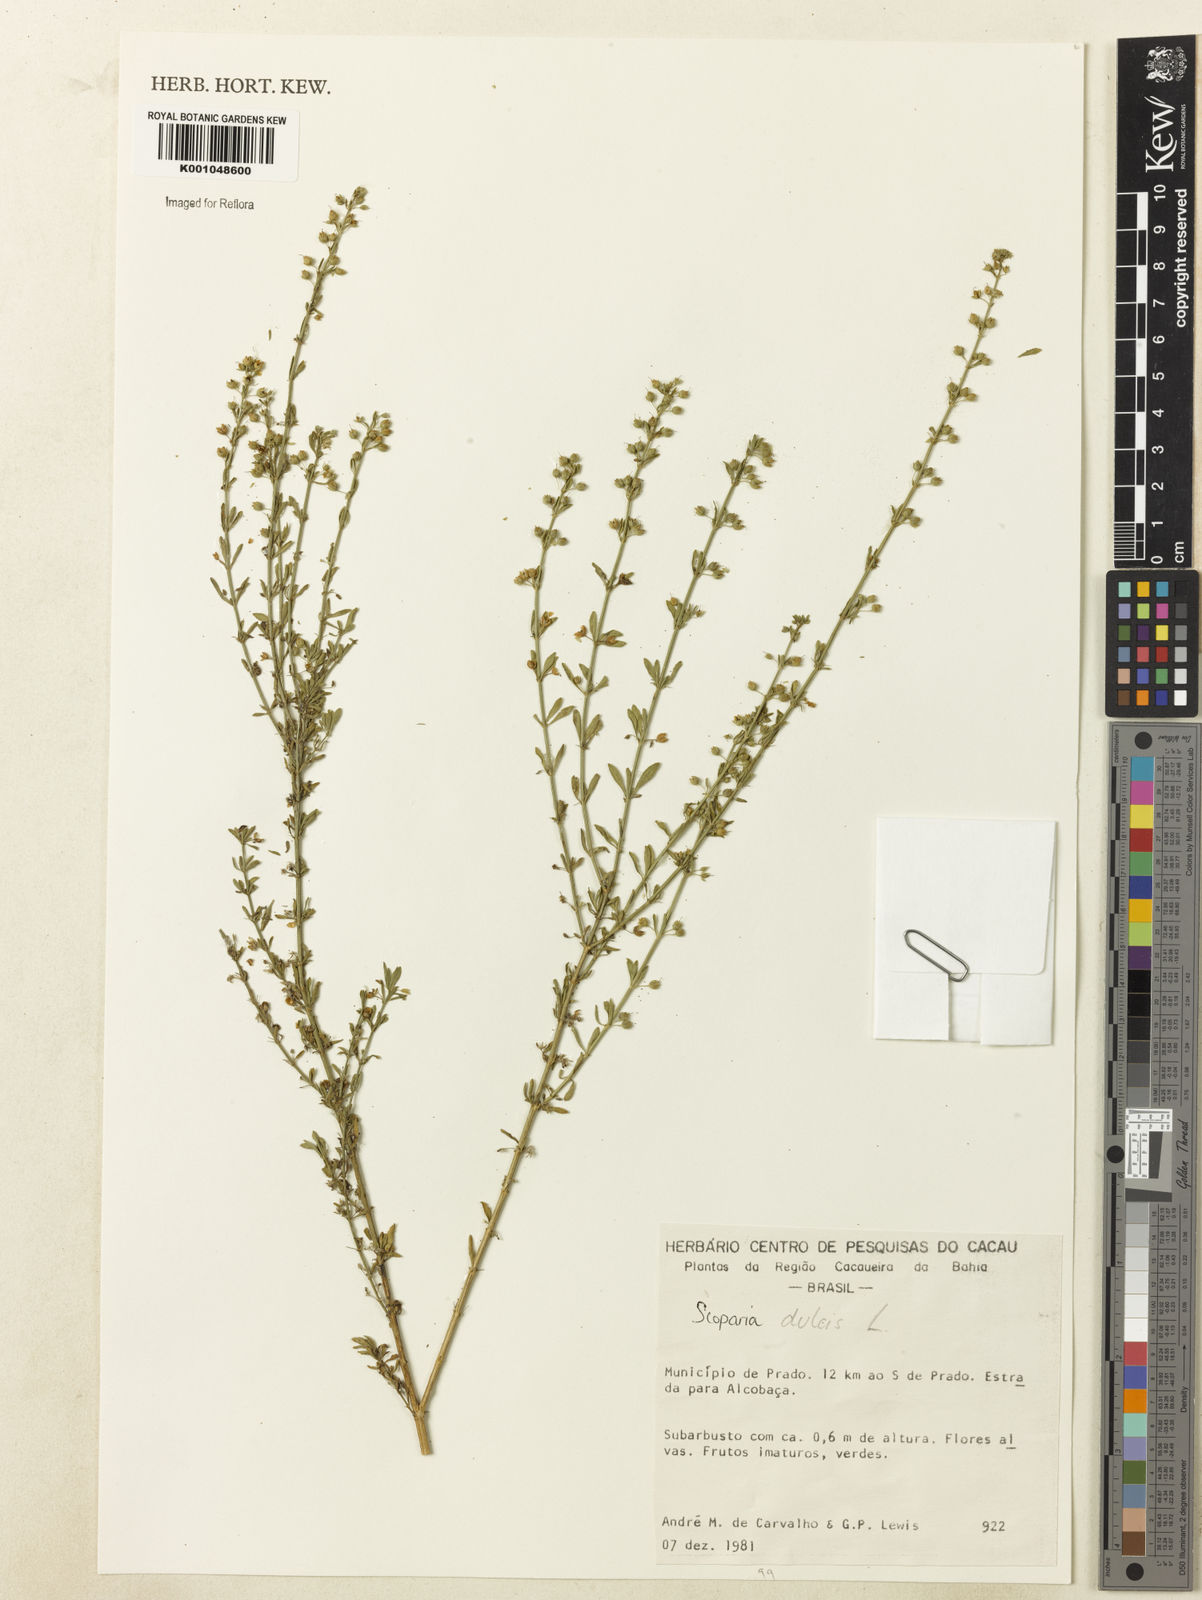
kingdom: Plantae
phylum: Tracheophyta
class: Magnoliopsida
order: Lamiales
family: Plantaginaceae
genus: Scoparia
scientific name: Scoparia dulcis
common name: Scoparia-weed
